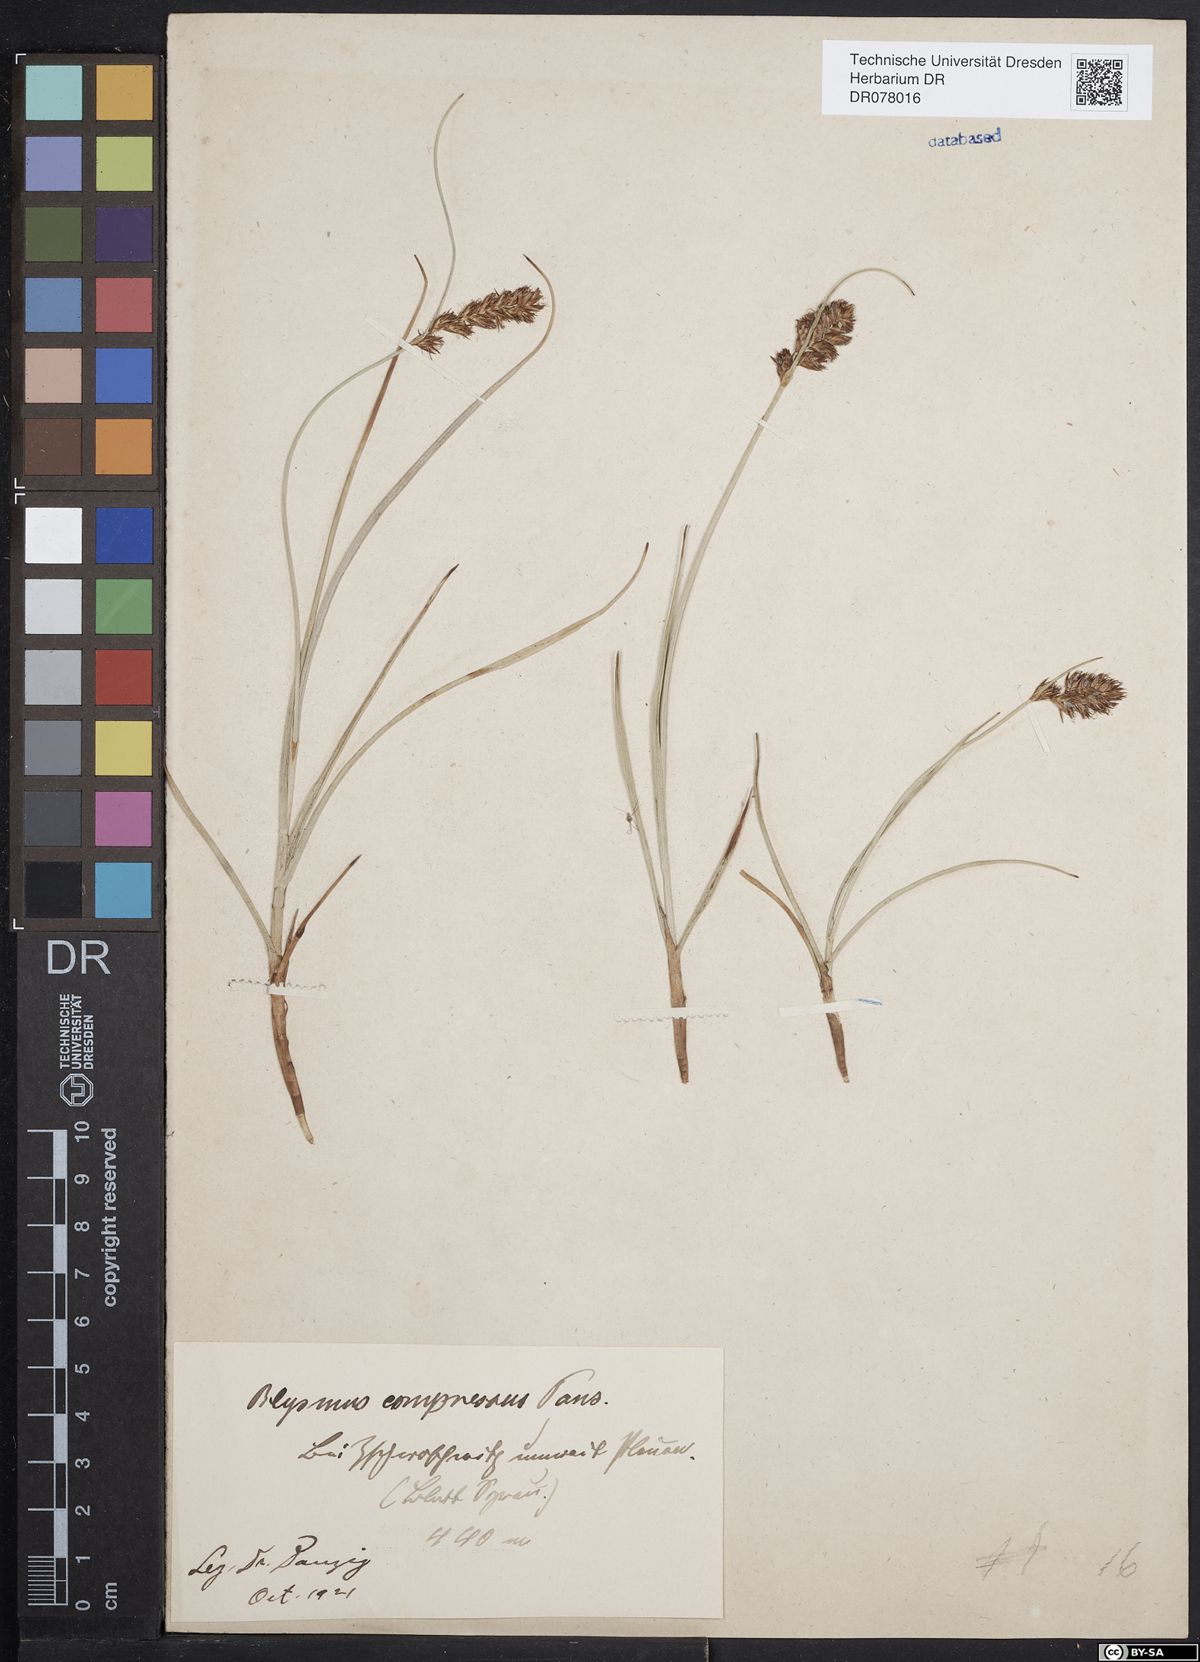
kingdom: Plantae
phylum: Tracheophyta
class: Liliopsida
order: Poales
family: Cyperaceae
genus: Blysmus
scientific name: Blysmus compressus
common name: Flat-sedge
